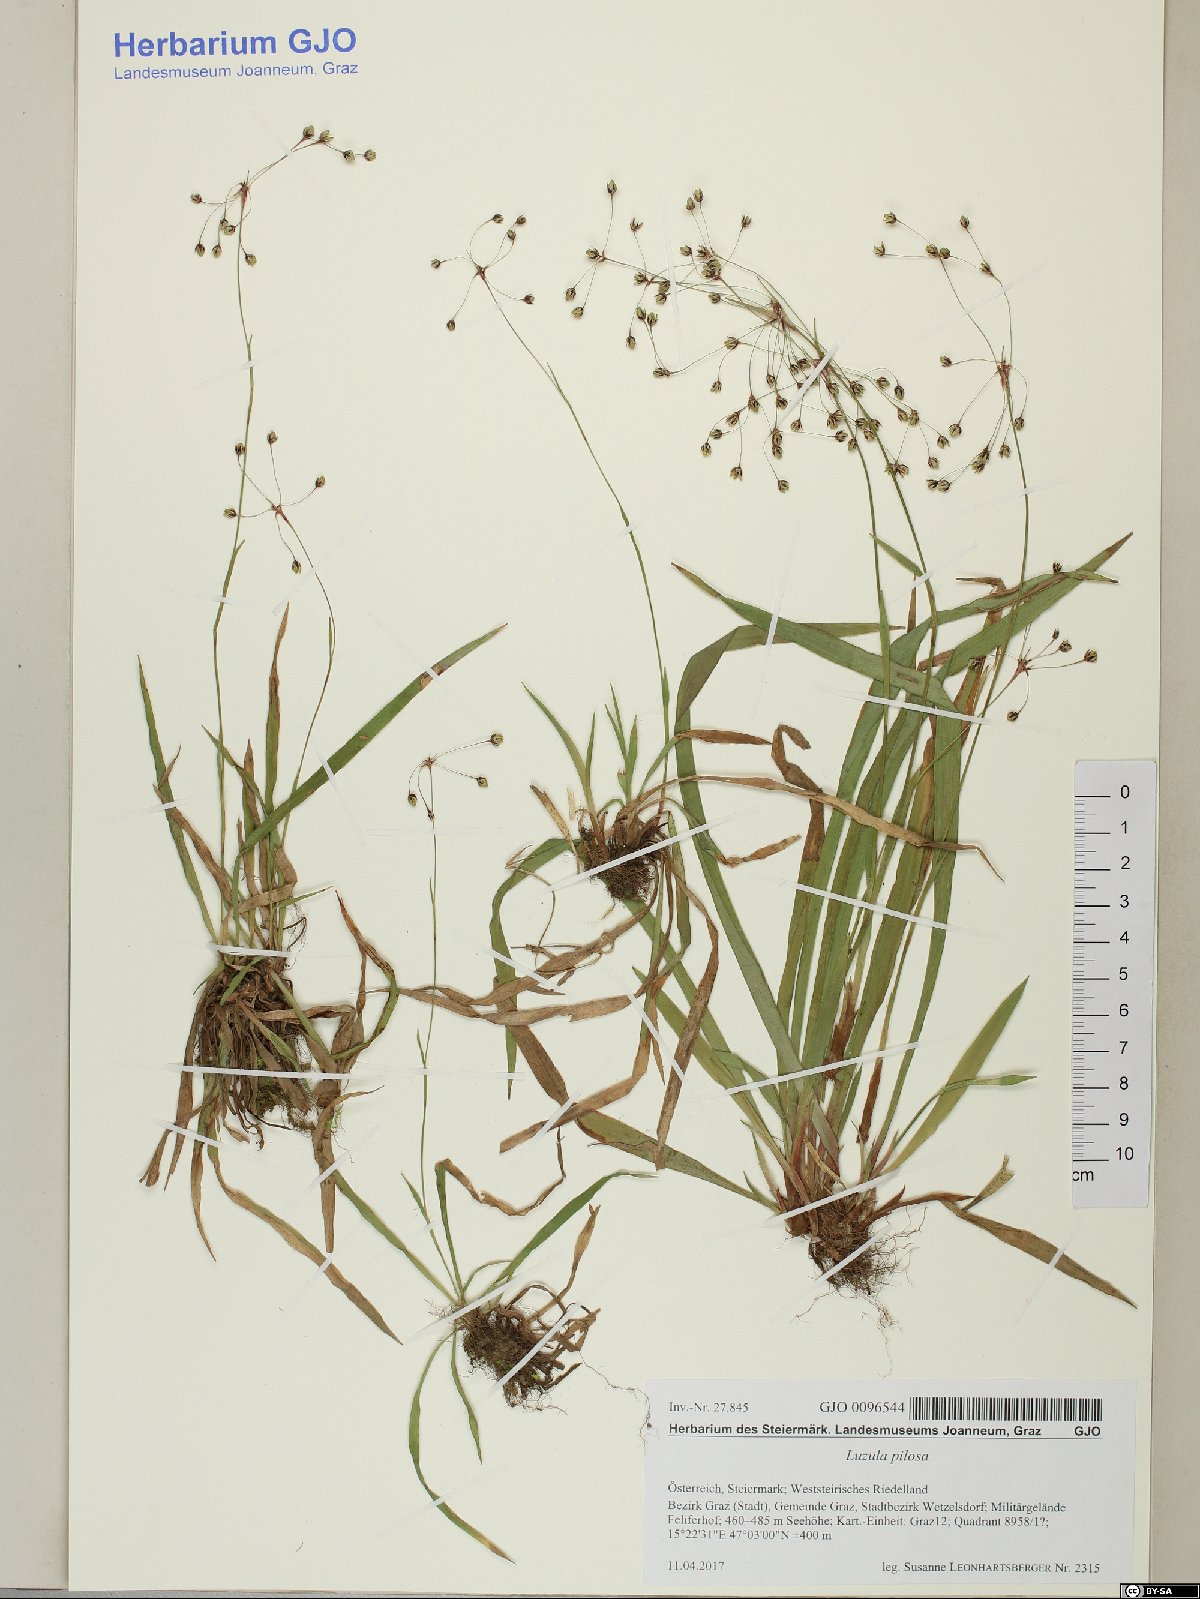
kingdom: Plantae
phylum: Tracheophyta
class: Liliopsida
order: Poales
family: Juncaceae
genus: Luzula
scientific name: Luzula pilosa
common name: Hairy wood-rush
